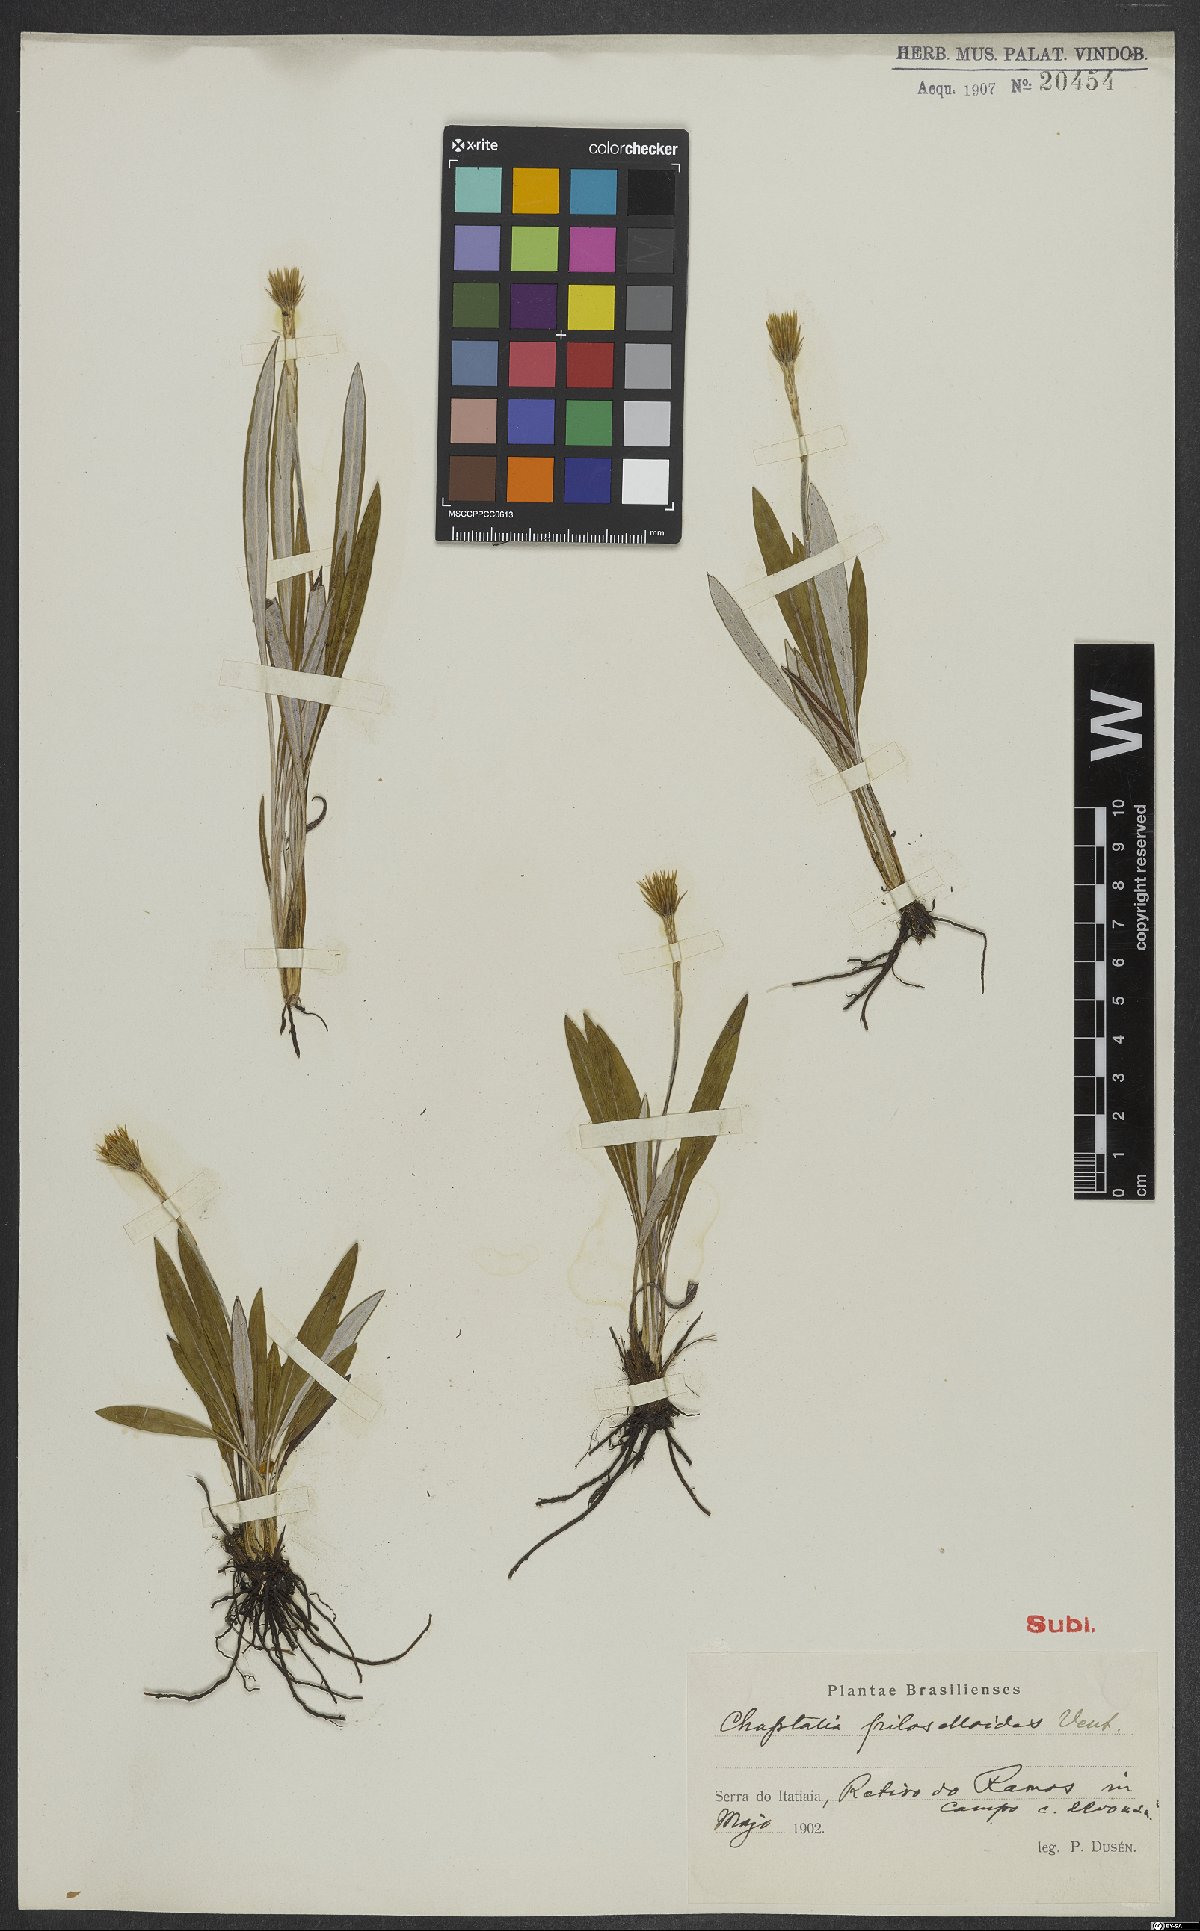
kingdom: Plantae
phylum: Tracheophyta
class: Magnoliopsida
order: Asterales
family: Asteraceae
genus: Chaptalia
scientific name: Chaptalia piloselloides
